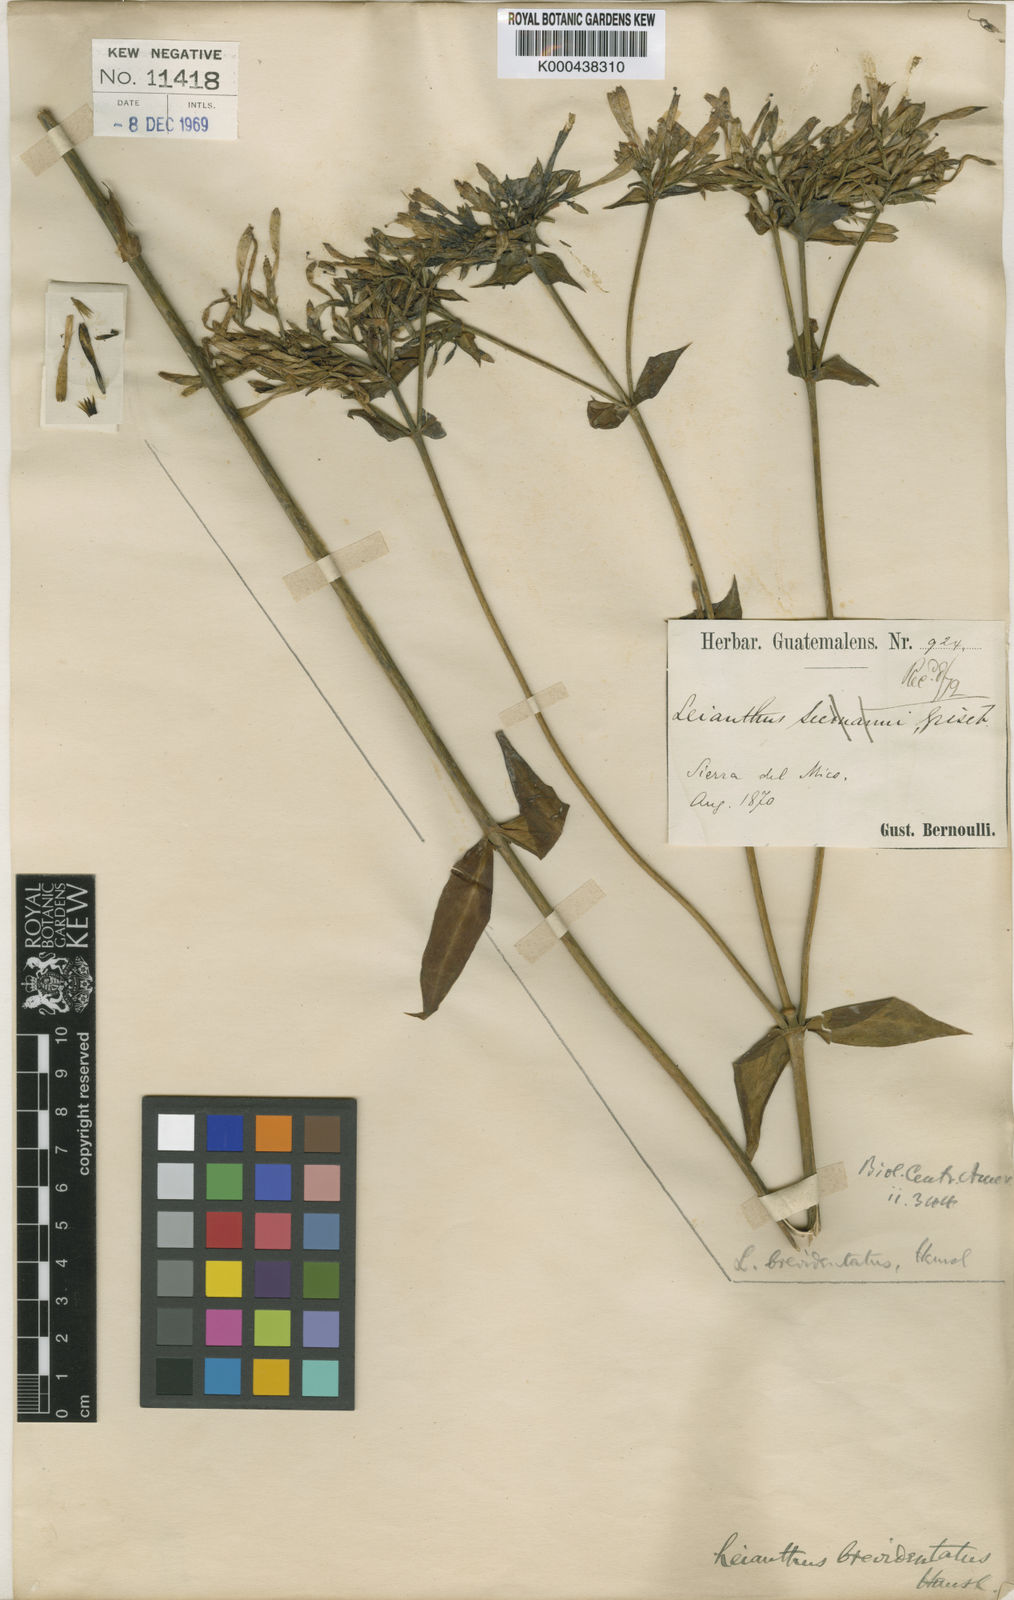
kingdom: Plantae
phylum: Tracheophyta
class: Magnoliopsida
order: Gentianales
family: Gentianaceae
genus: Lisianthus
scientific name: Lisianthus brevidentatus
